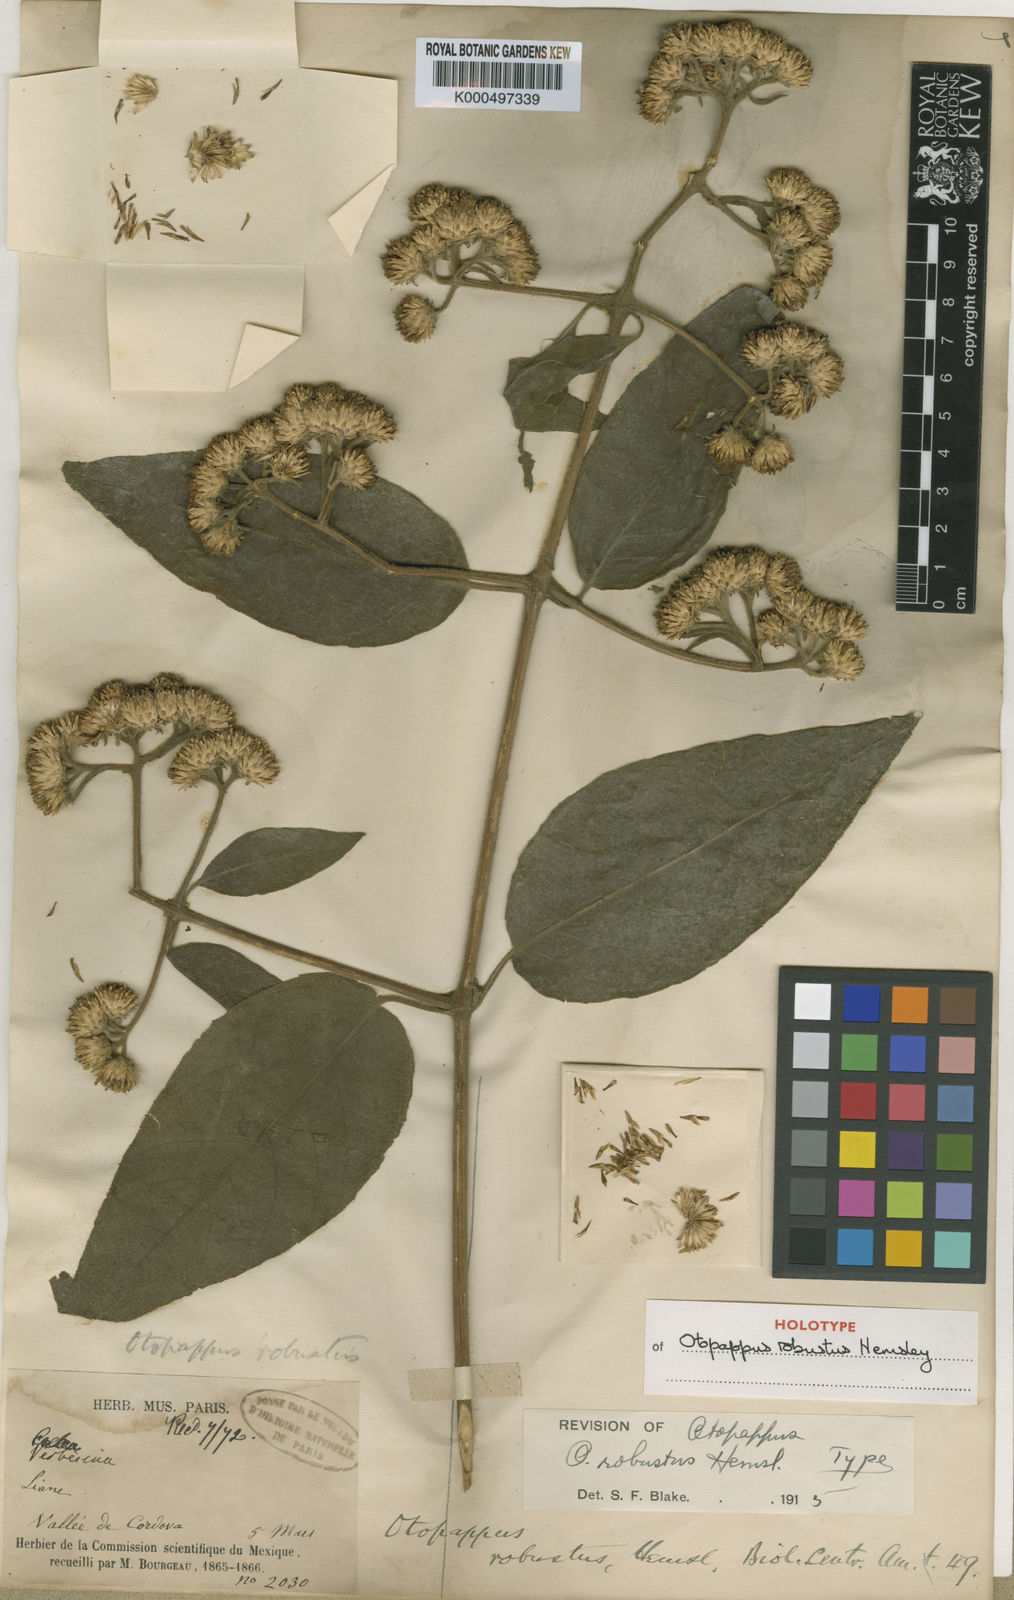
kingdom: Plantae
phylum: Tracheophyta
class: Magnoliopsida
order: Asterales
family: Asteraceae
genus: Otopappus
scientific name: Otopappus robustus
